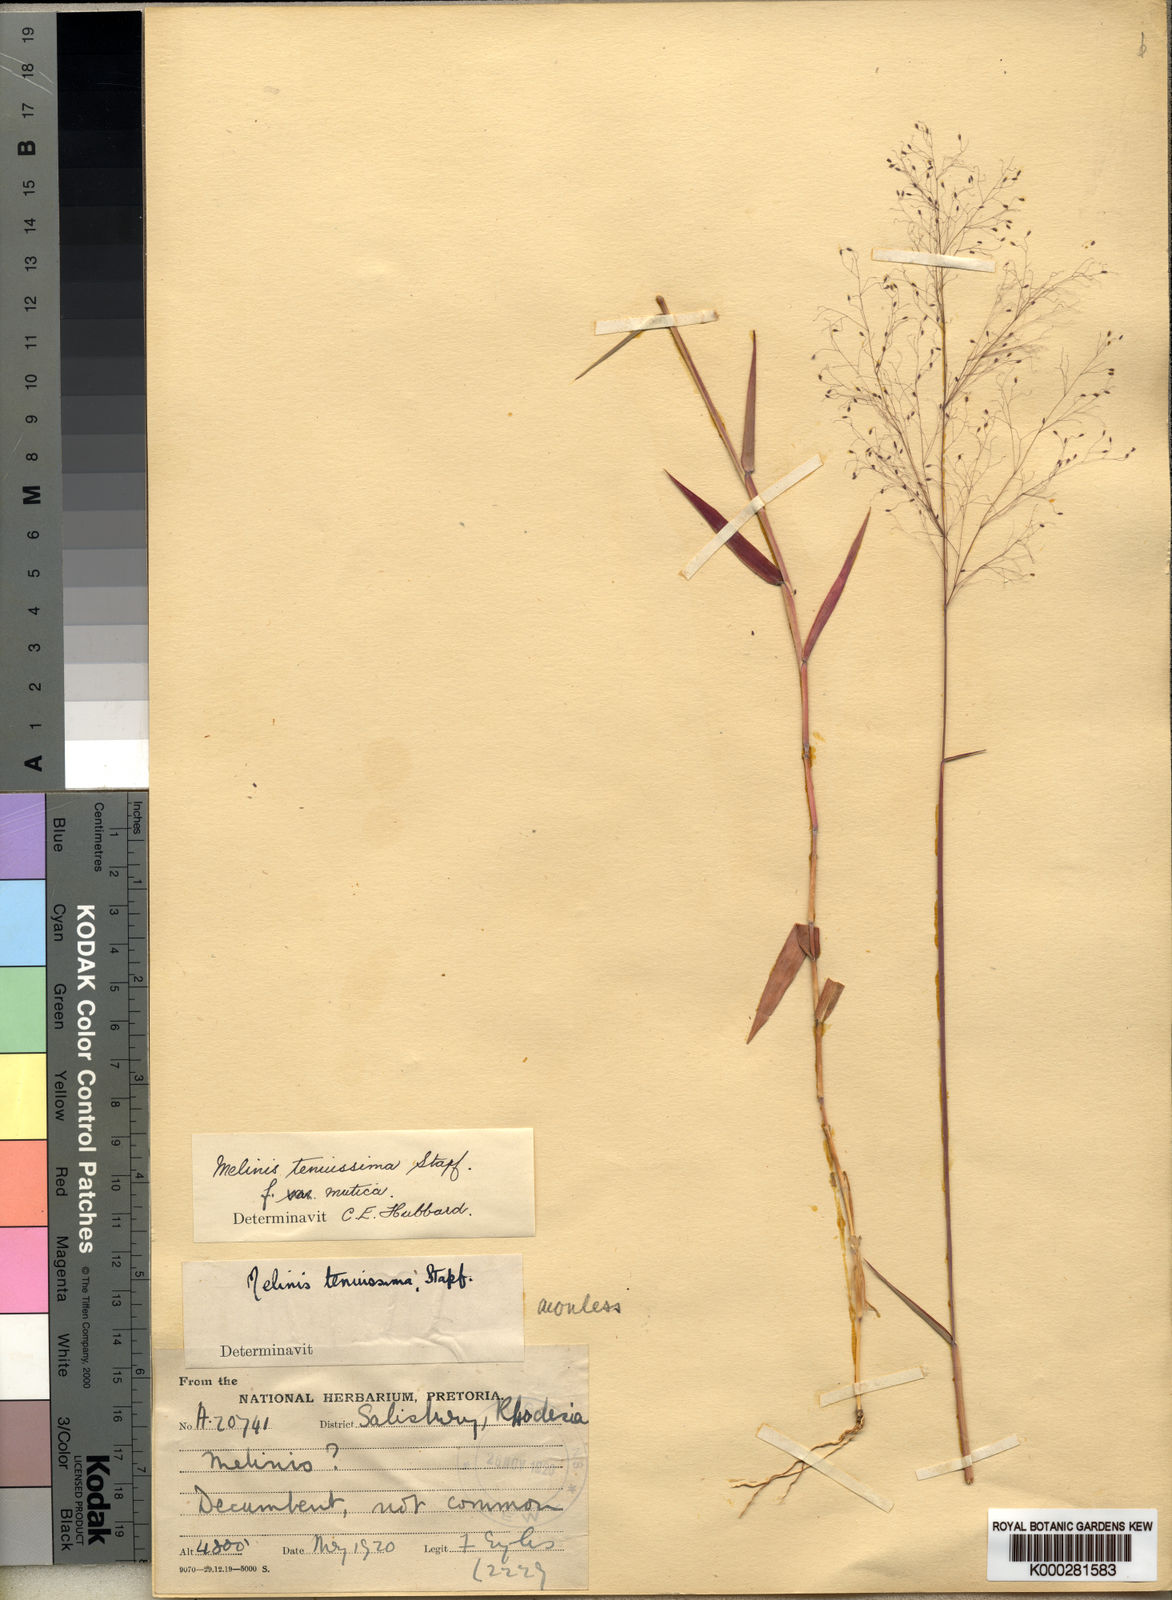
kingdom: Plantae
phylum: Tracheophyta
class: Liliopsida
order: Poales
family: Poaceae
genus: Melinis
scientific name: Melinis tenuissima
